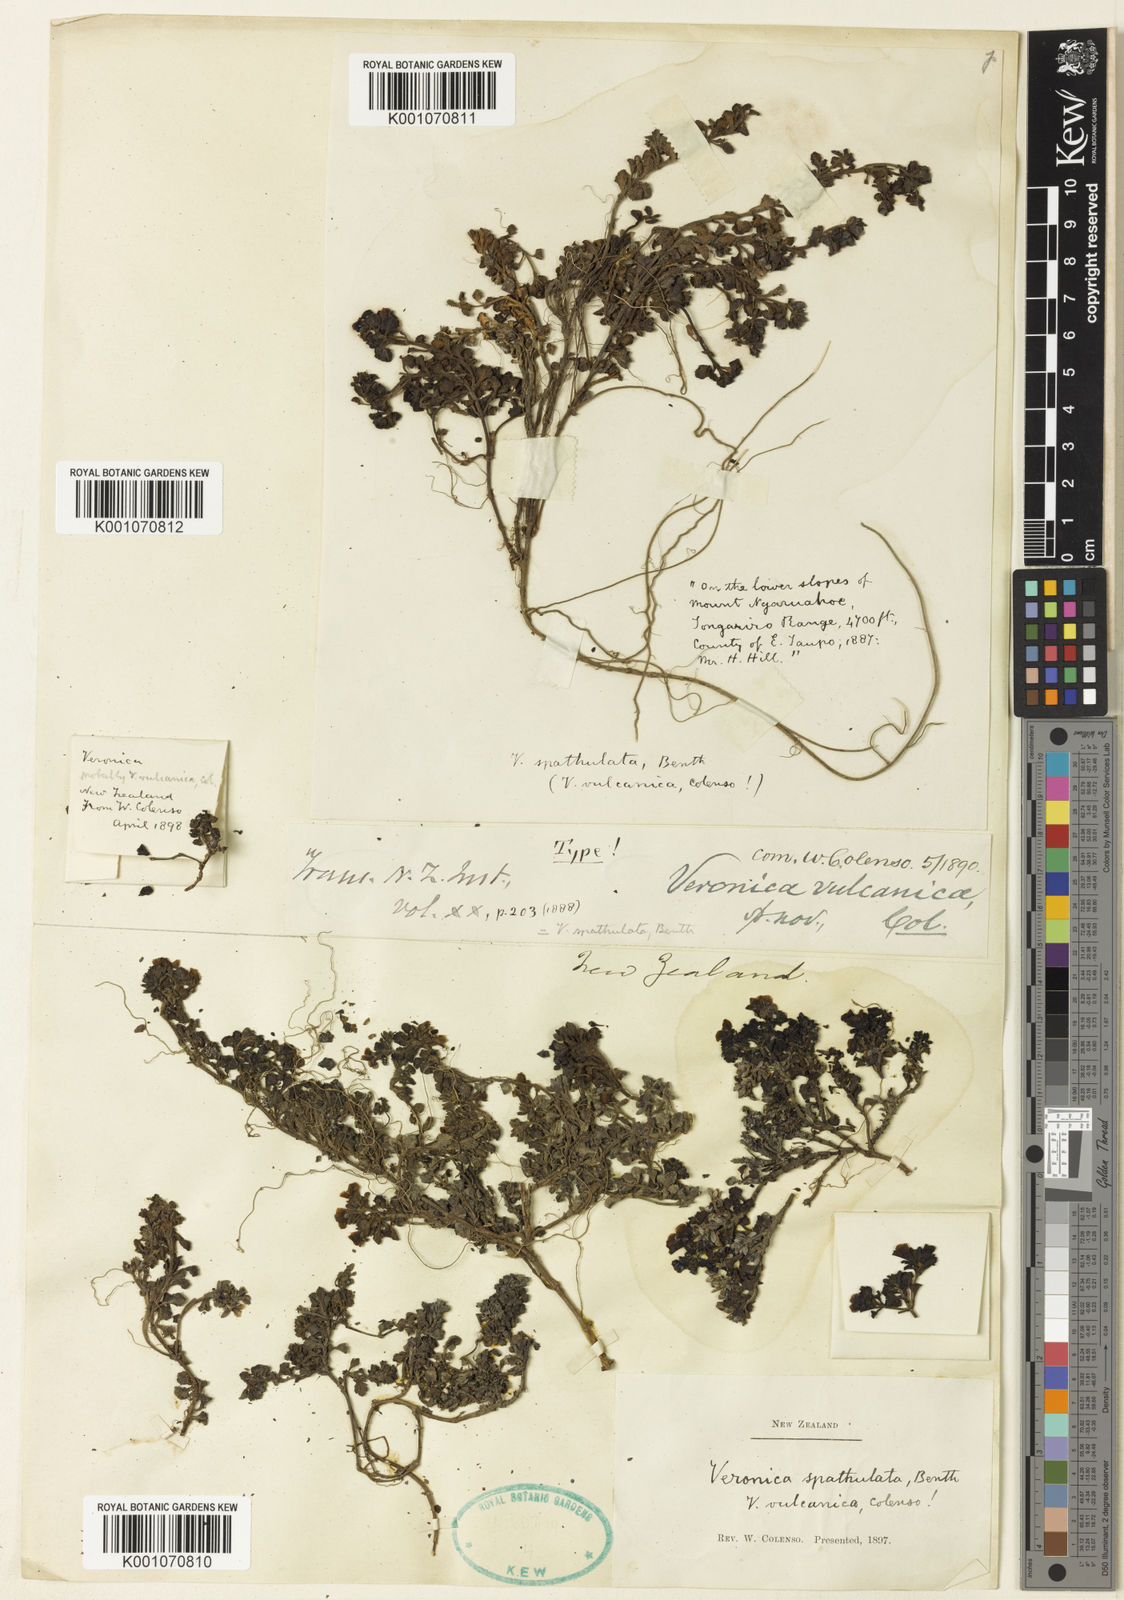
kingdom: Plantae
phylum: Tracheophyta
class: Magnoliopsida
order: Lamiales
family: Plantaginaceae
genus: Veronica
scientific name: Veronica spathulata
